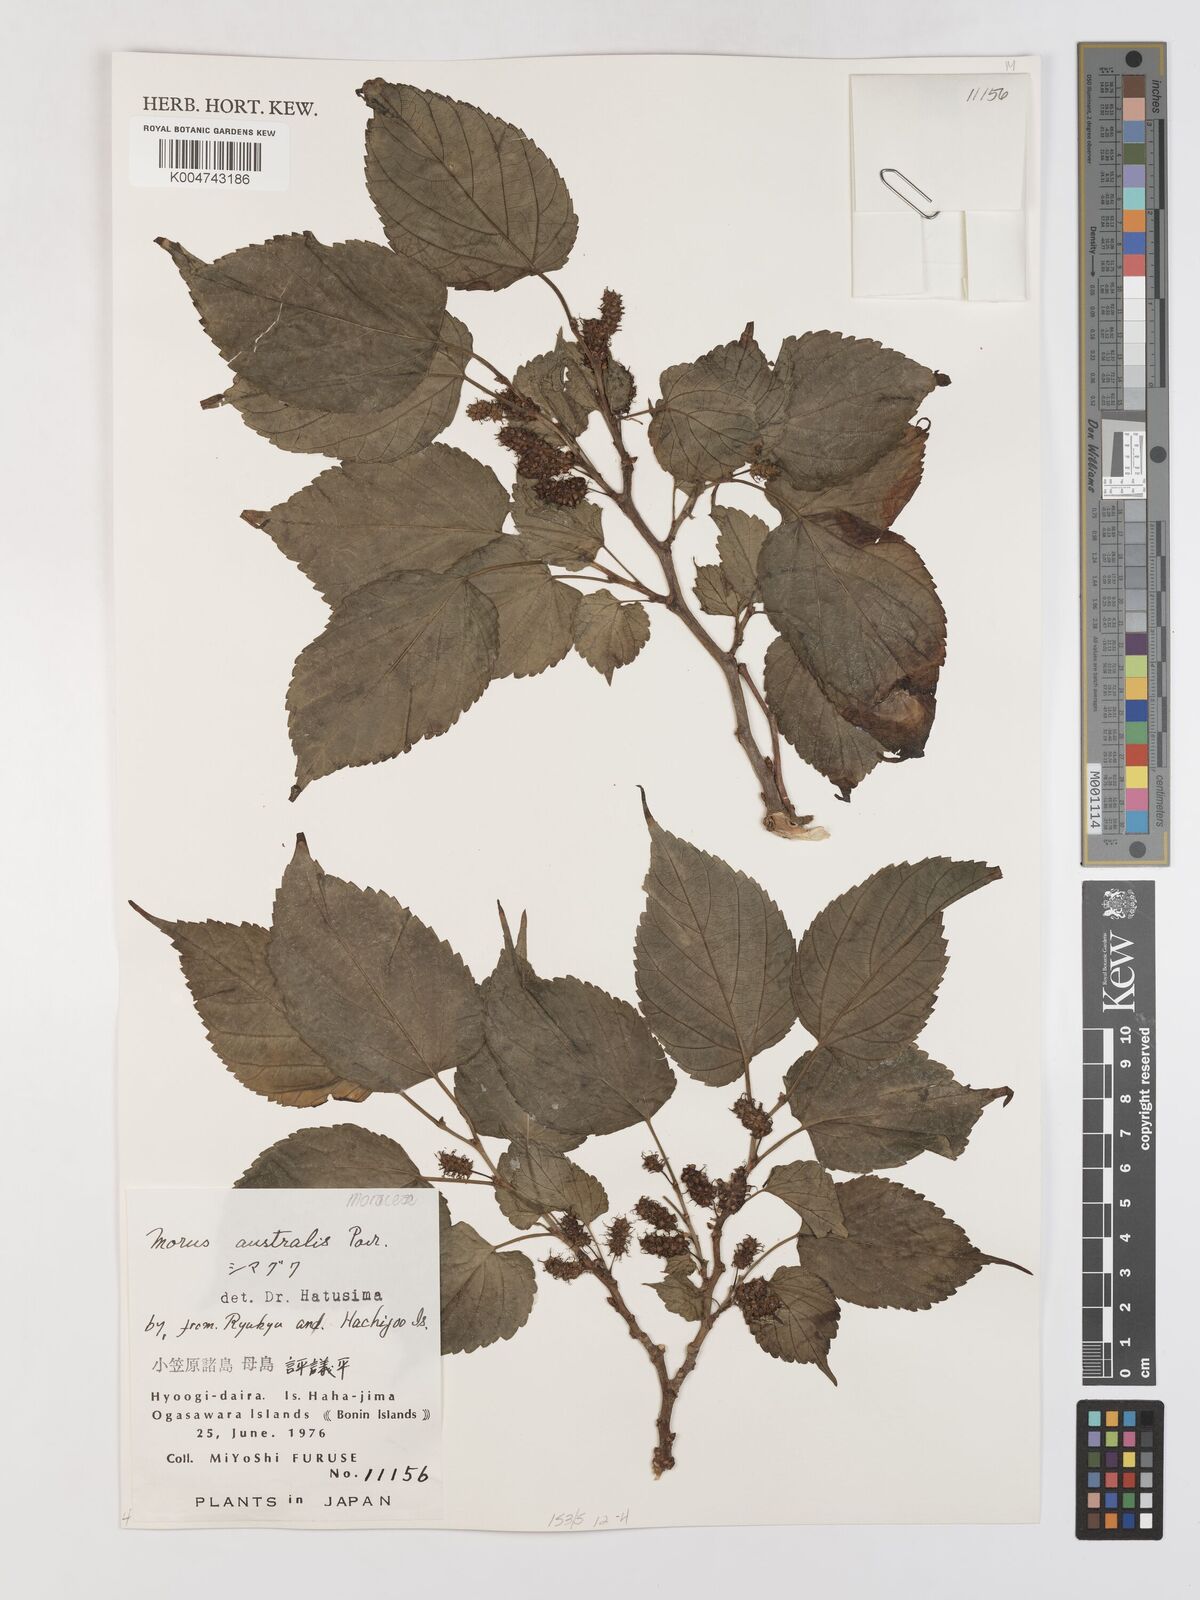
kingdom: Plantae
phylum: Tracheophyta
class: Magnoliopsida
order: Rosales
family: Moraceae
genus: Broussonetia
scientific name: Broussonetia papyrifera
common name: Paper mulberry
